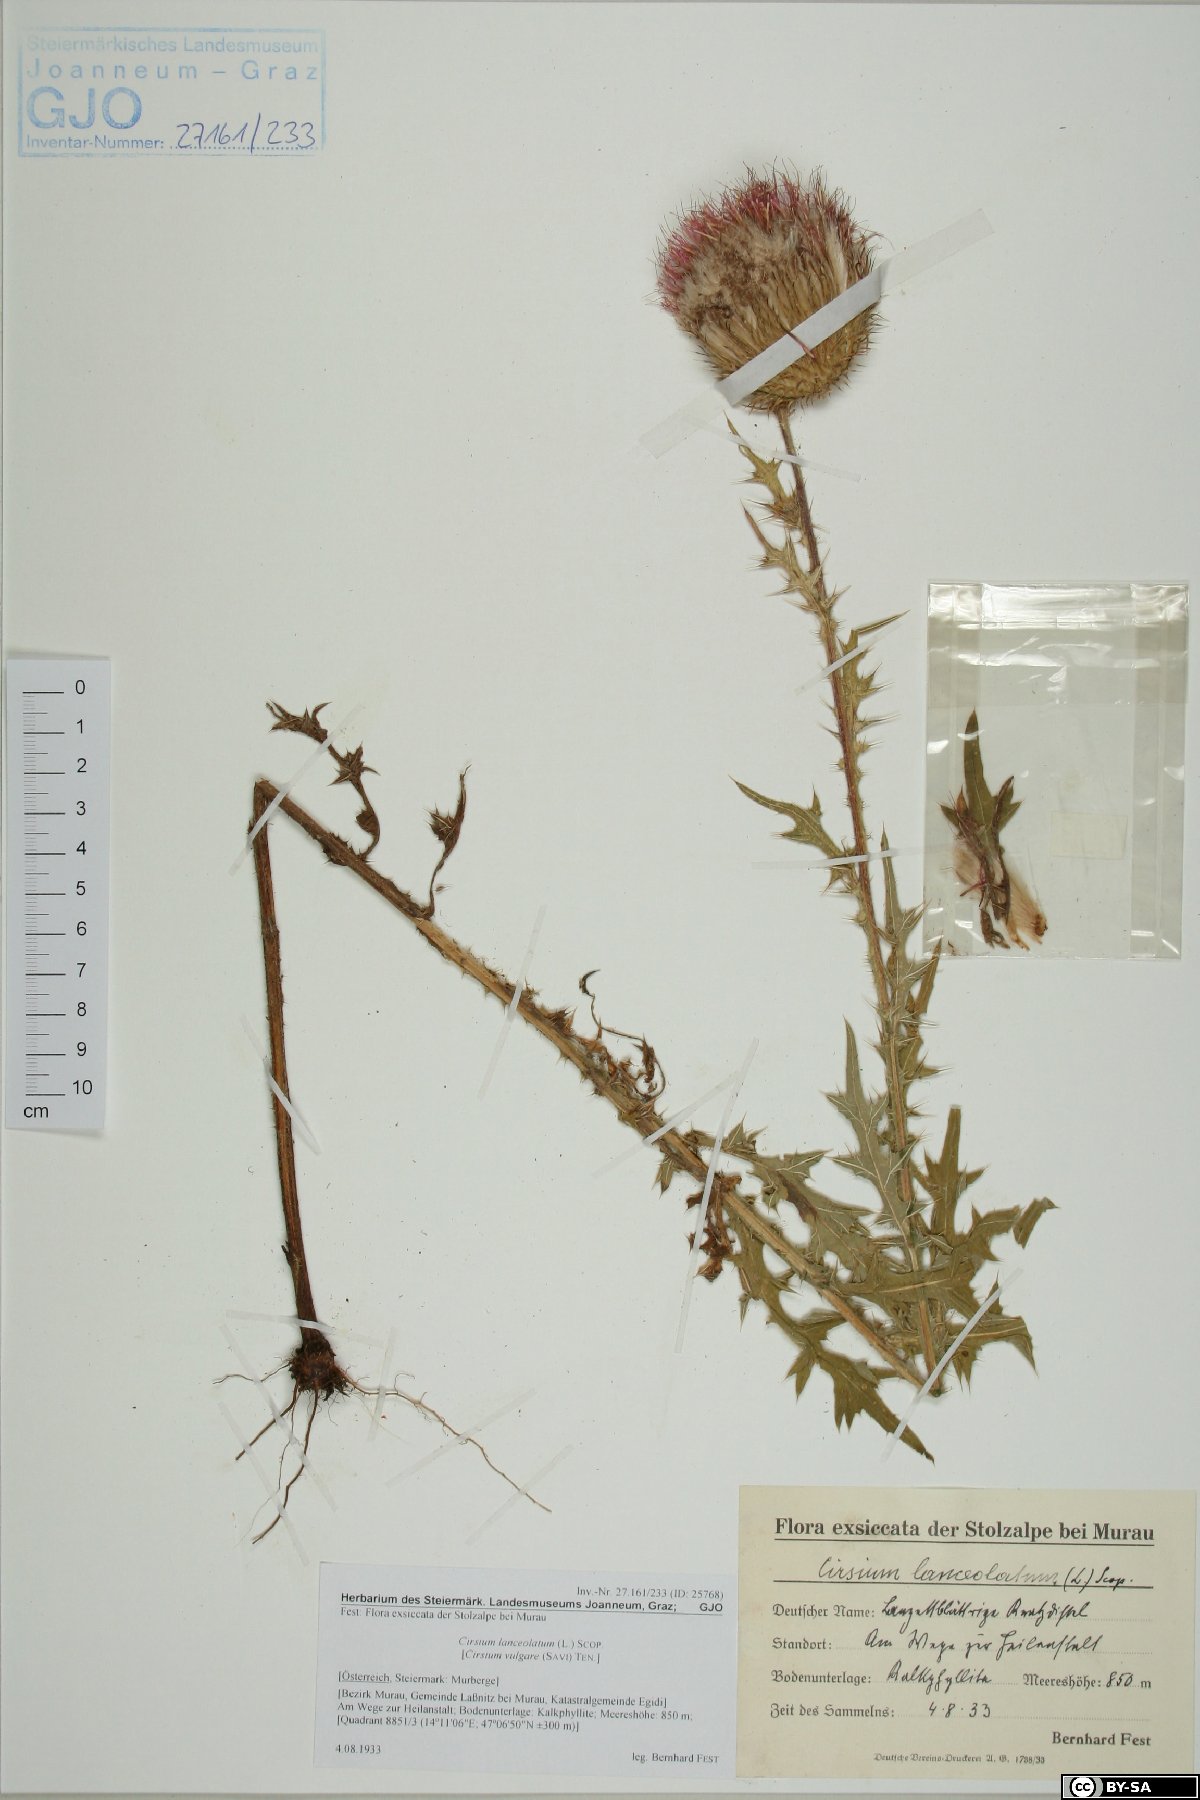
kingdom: Plantae
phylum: Tracheophyta
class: Magnoliopsida
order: Asterales
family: Asteraceae
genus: Cirsium
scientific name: Cirsium vulgare
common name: Bull thistle
